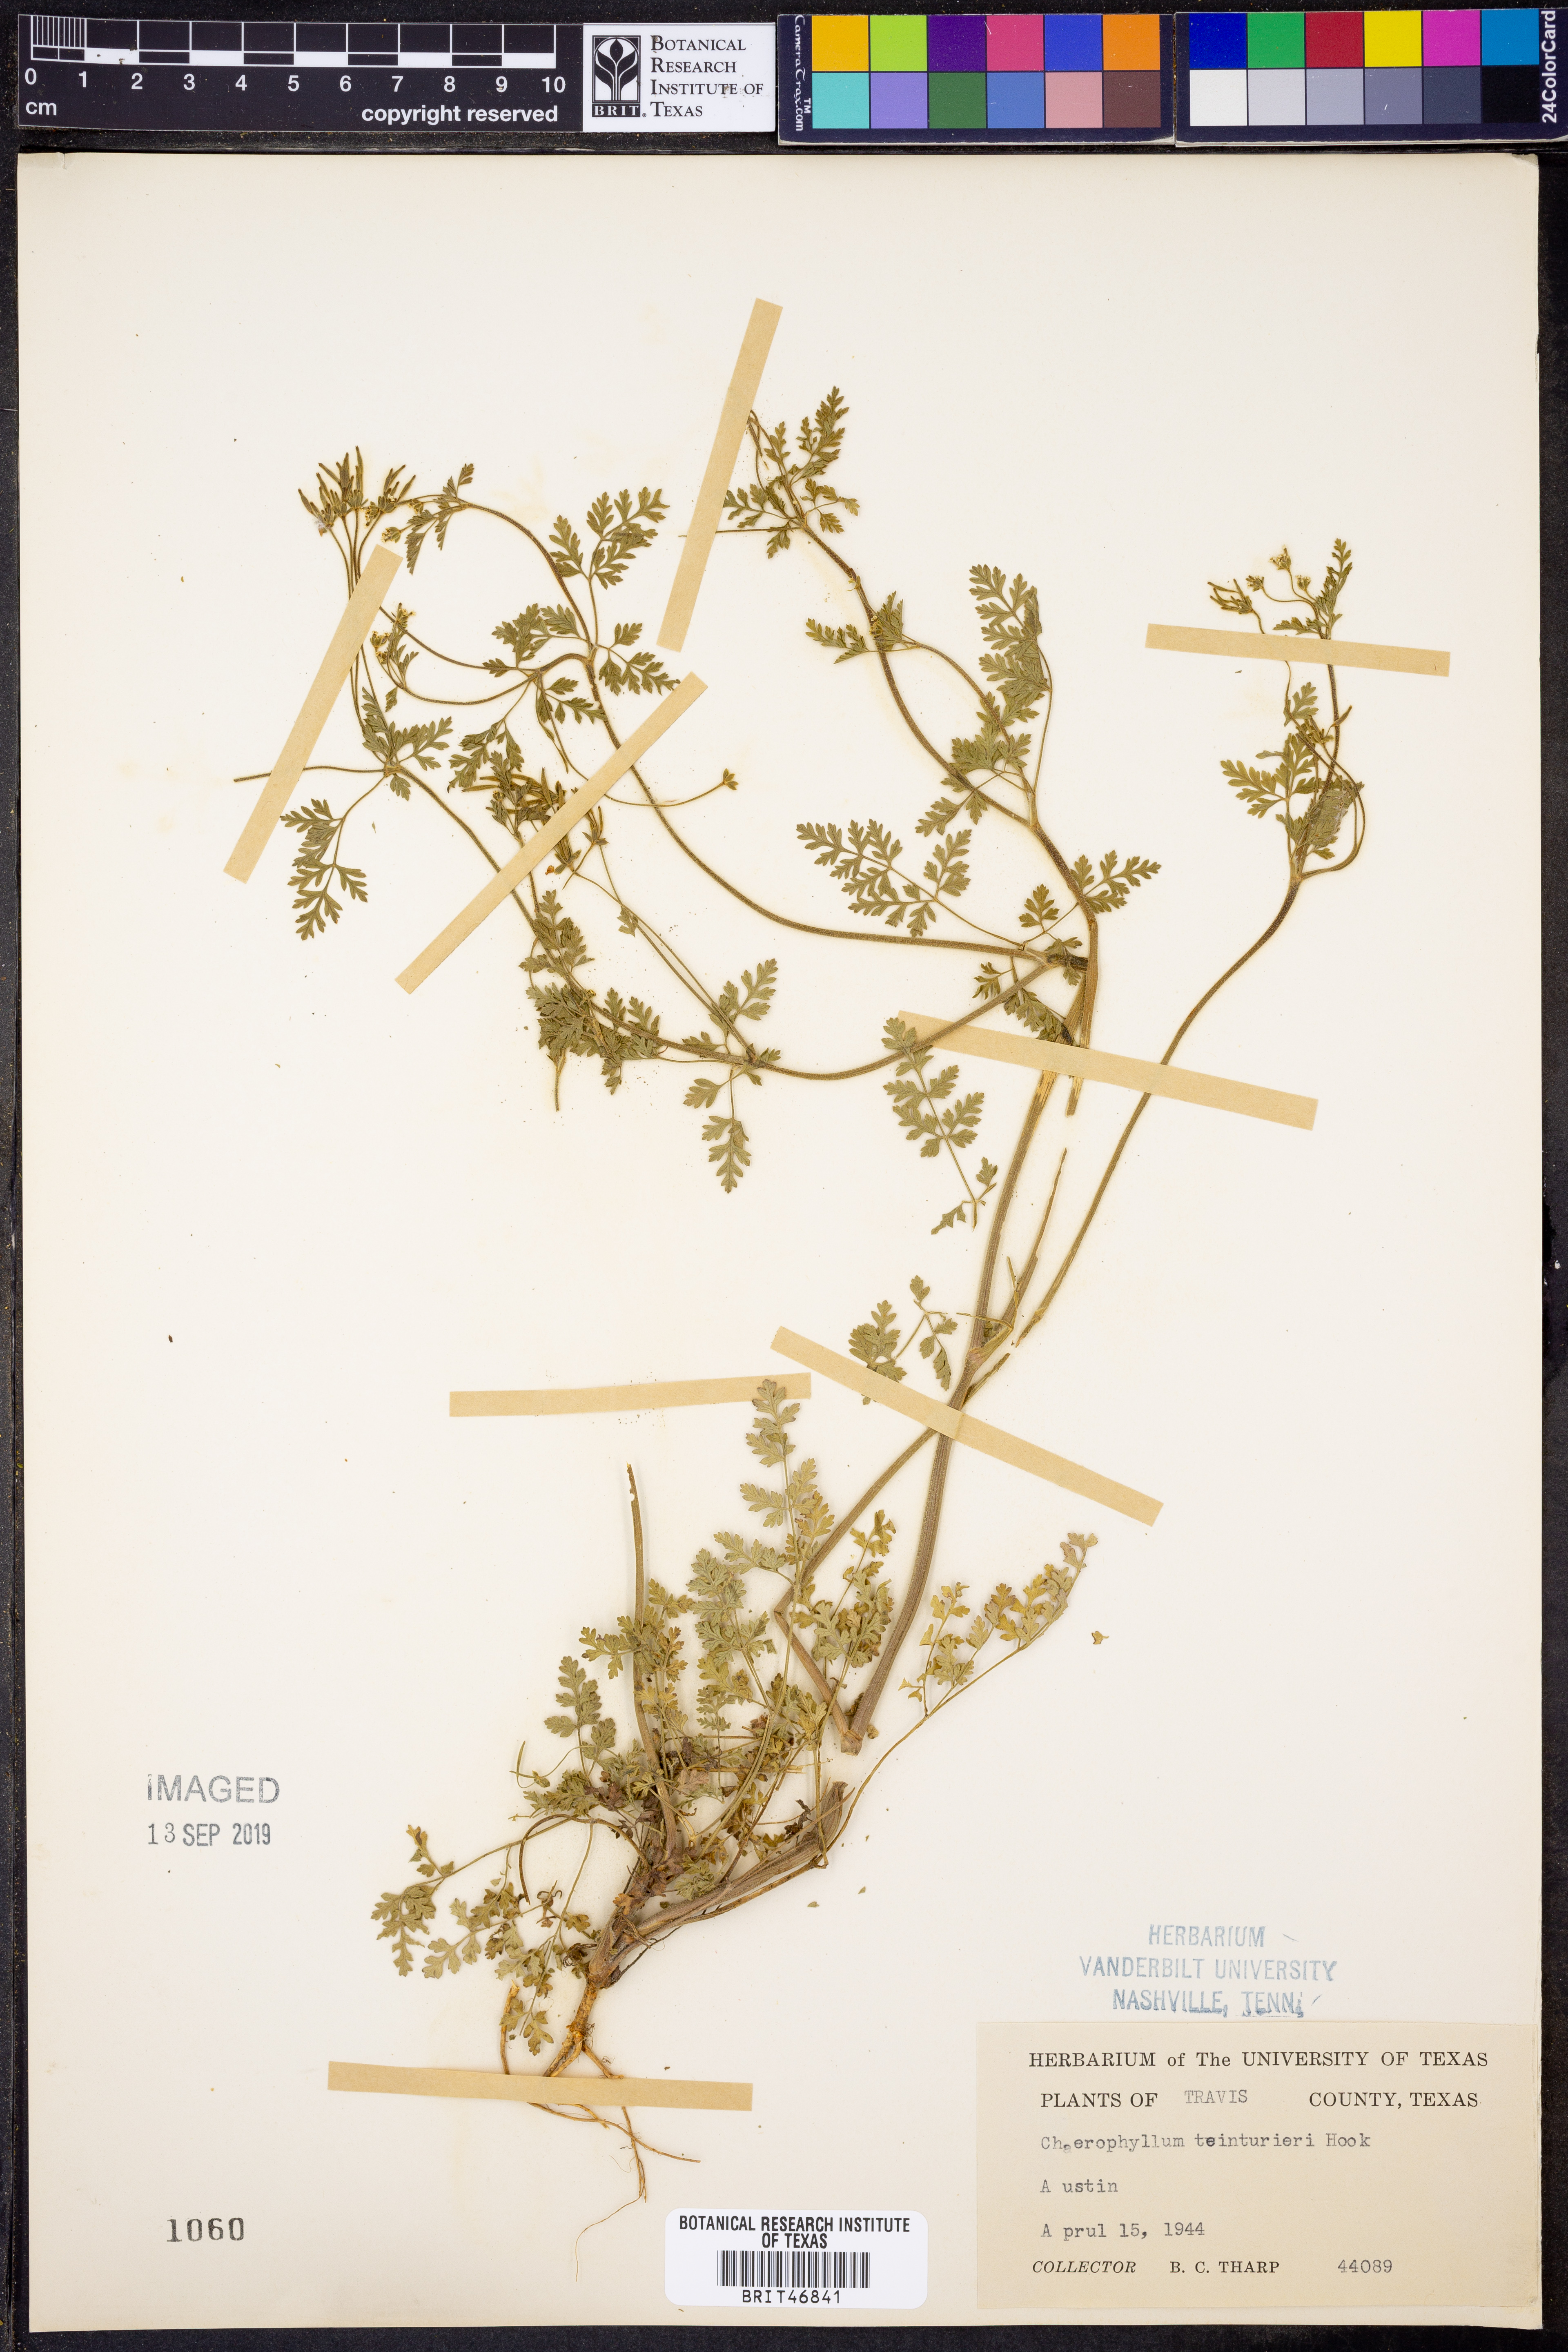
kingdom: Plantae
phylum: Tracheophyta
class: Magnoliopsida
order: Apiales
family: Apiaceae
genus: Chaerophyllum
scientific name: Chaerophyllum tainturieri
